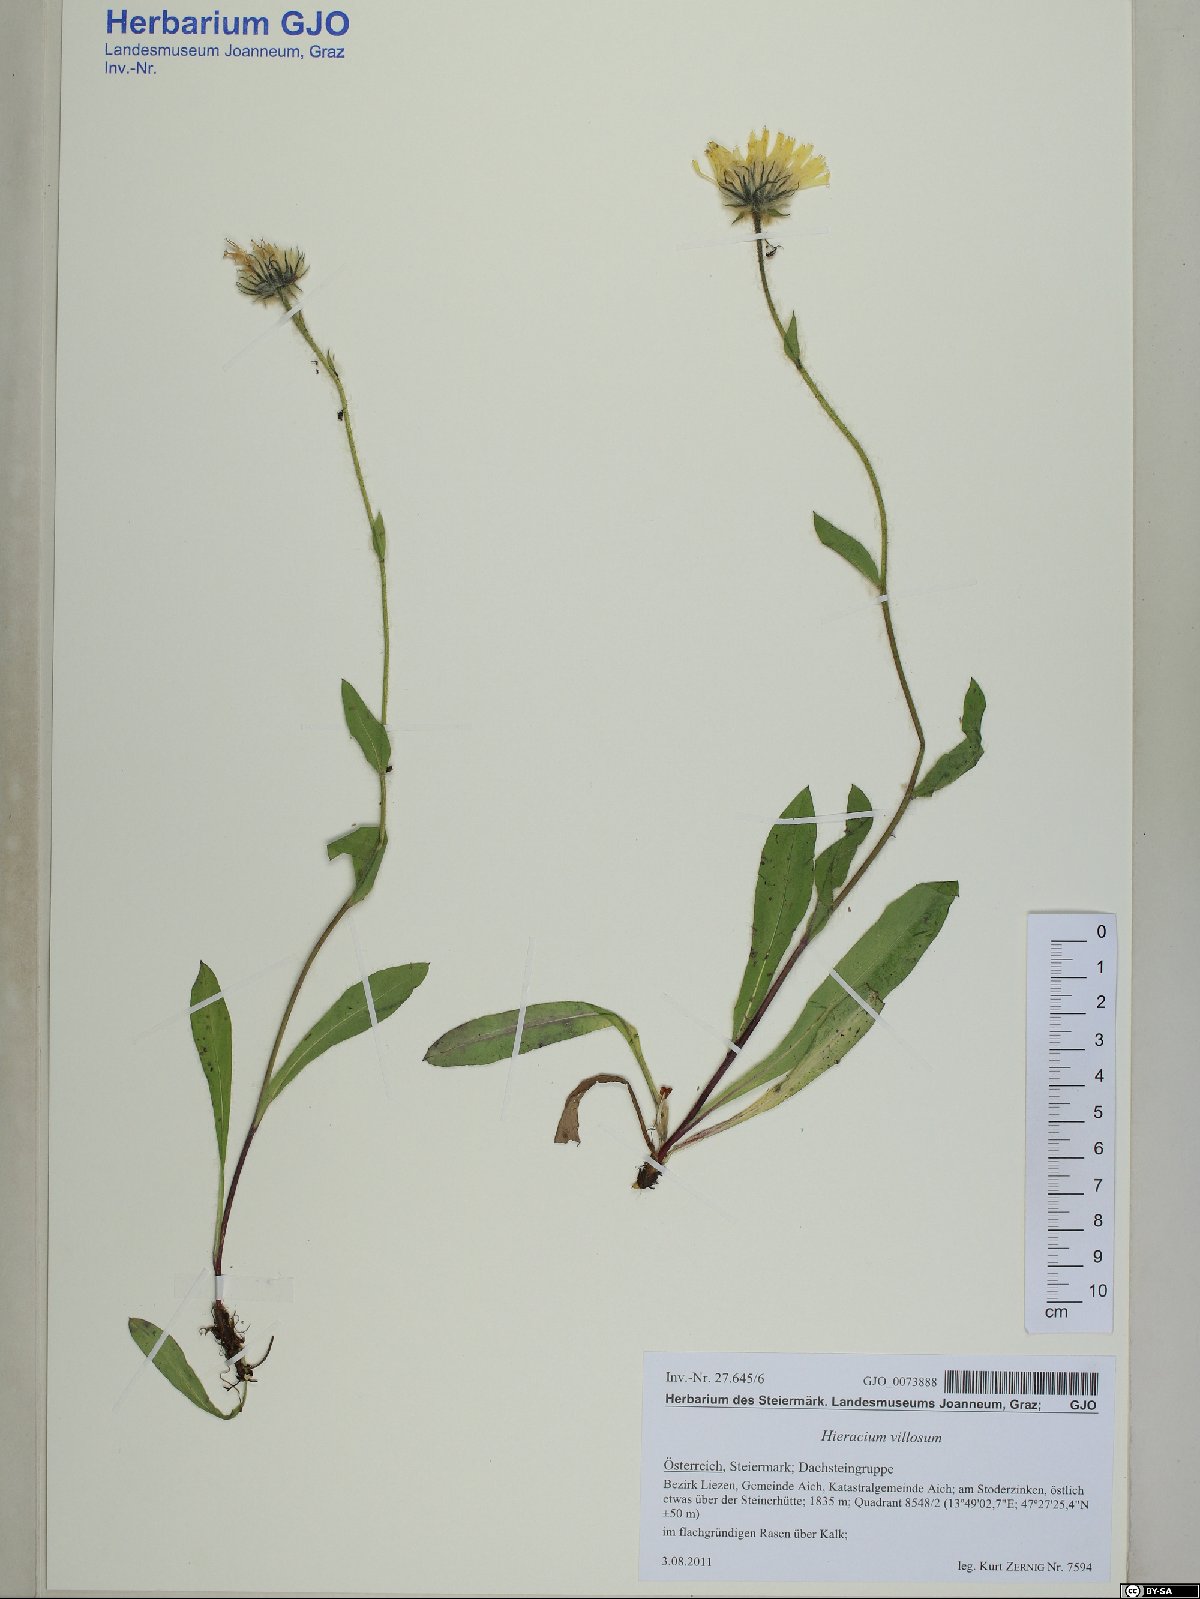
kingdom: Plantae
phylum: Tracheophyta
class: Magnoliopsida
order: Asterales
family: Asteraceae
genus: Hieracium
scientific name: Hieracium villosum
